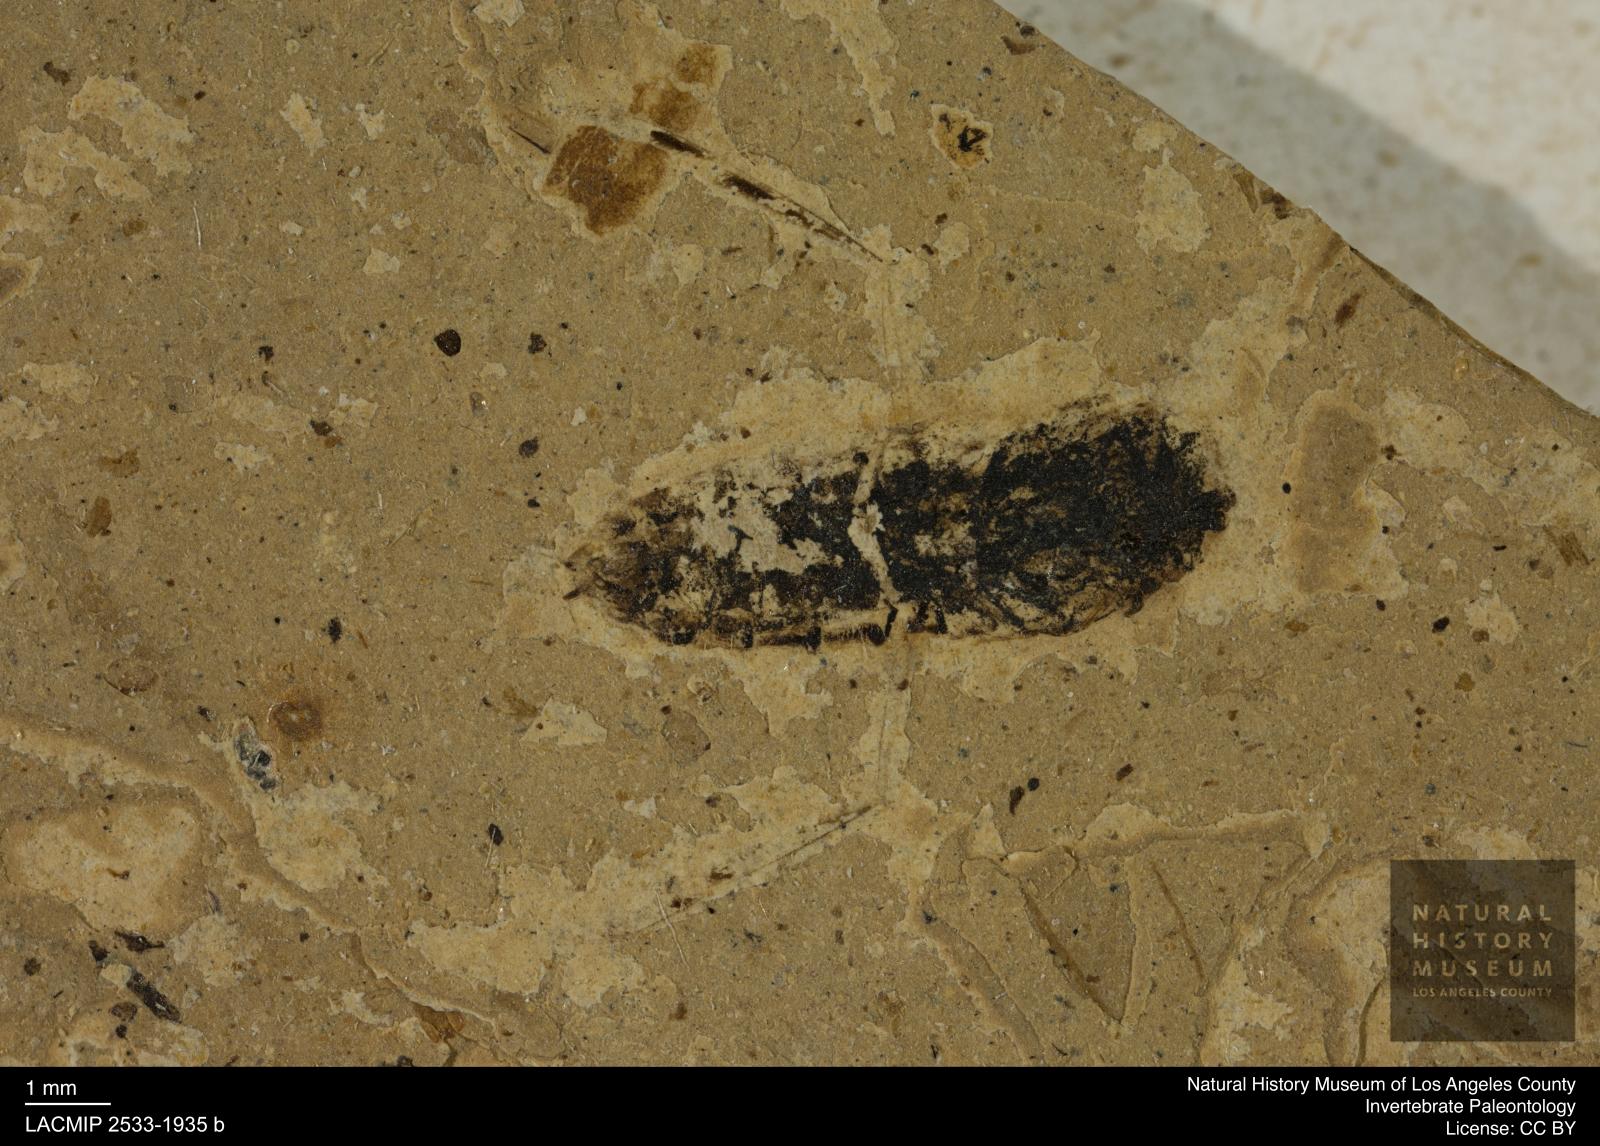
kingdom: Animalia
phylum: Arthropoda
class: Insecta
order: Hemiptera
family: Notonectidae
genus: Anisops
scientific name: Anisops Notonecta deichmuelleri
